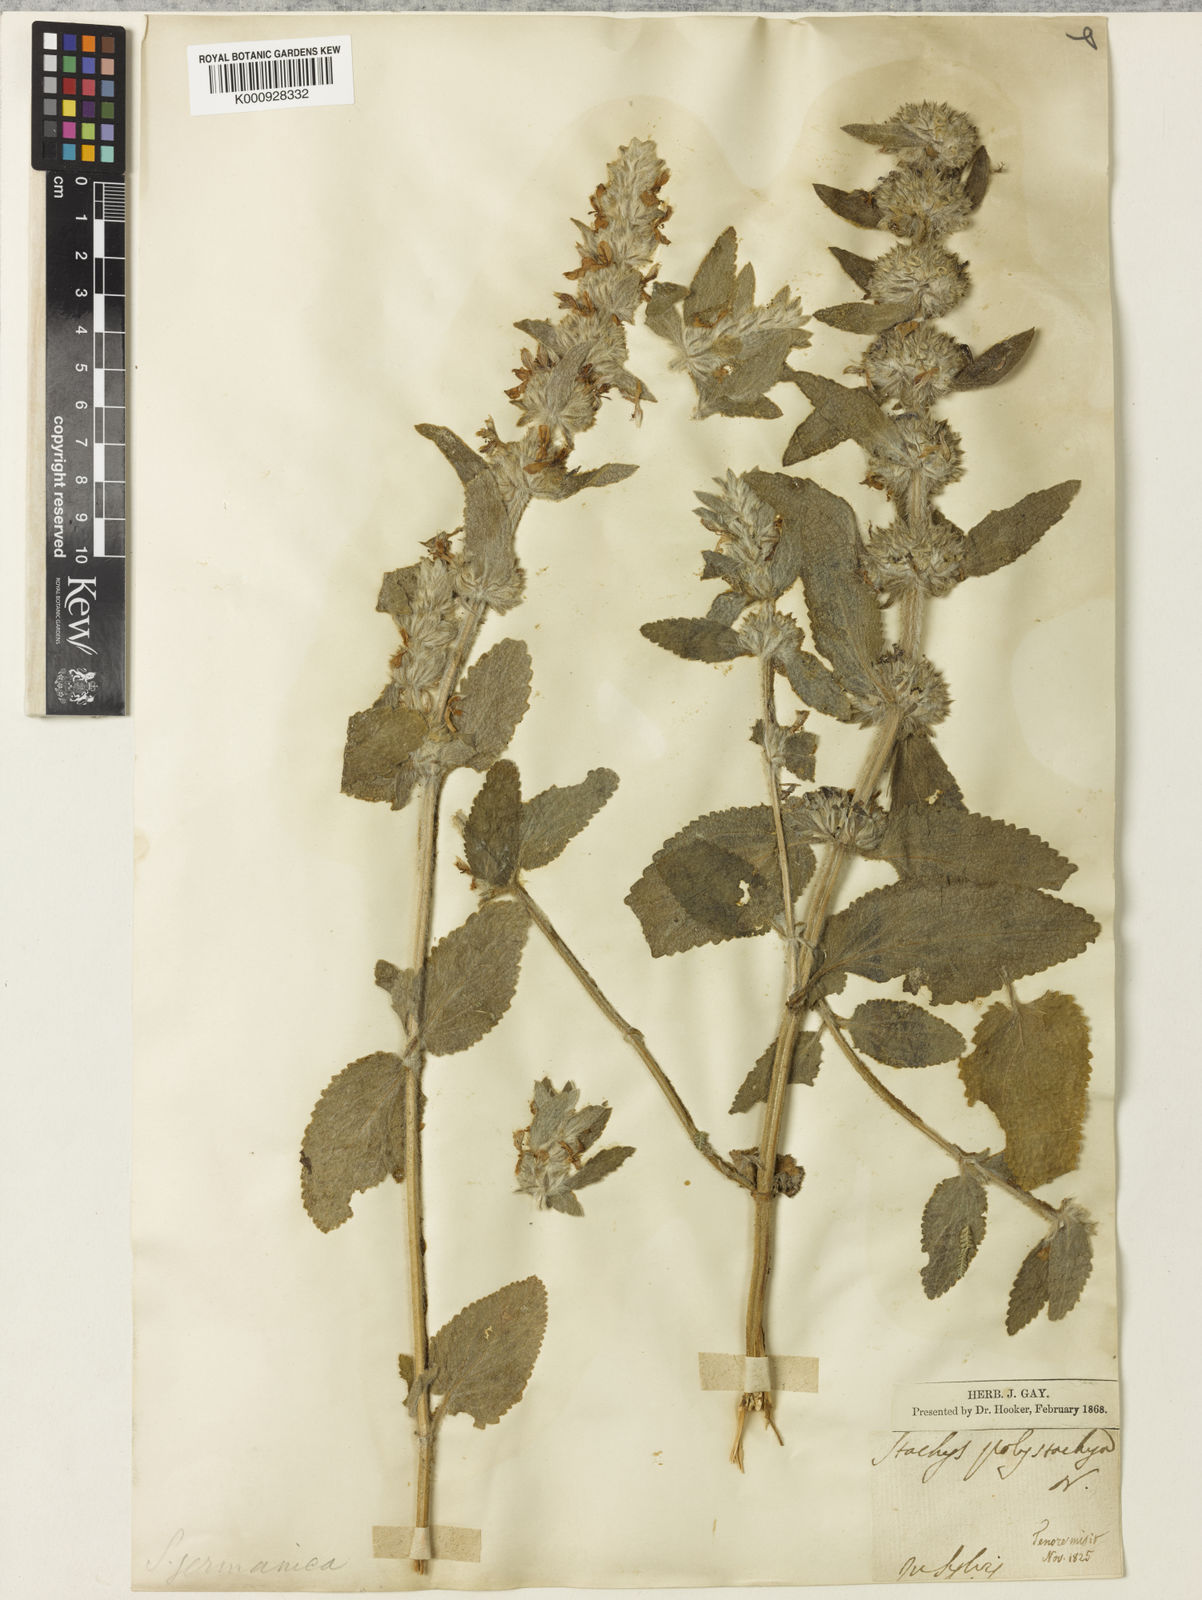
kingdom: Plantae
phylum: Tracheophyta
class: Magnoliopsida
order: Lamiales
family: Lamiaceae
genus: Stachys
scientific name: Stachys germanica
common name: Downy woundwort
